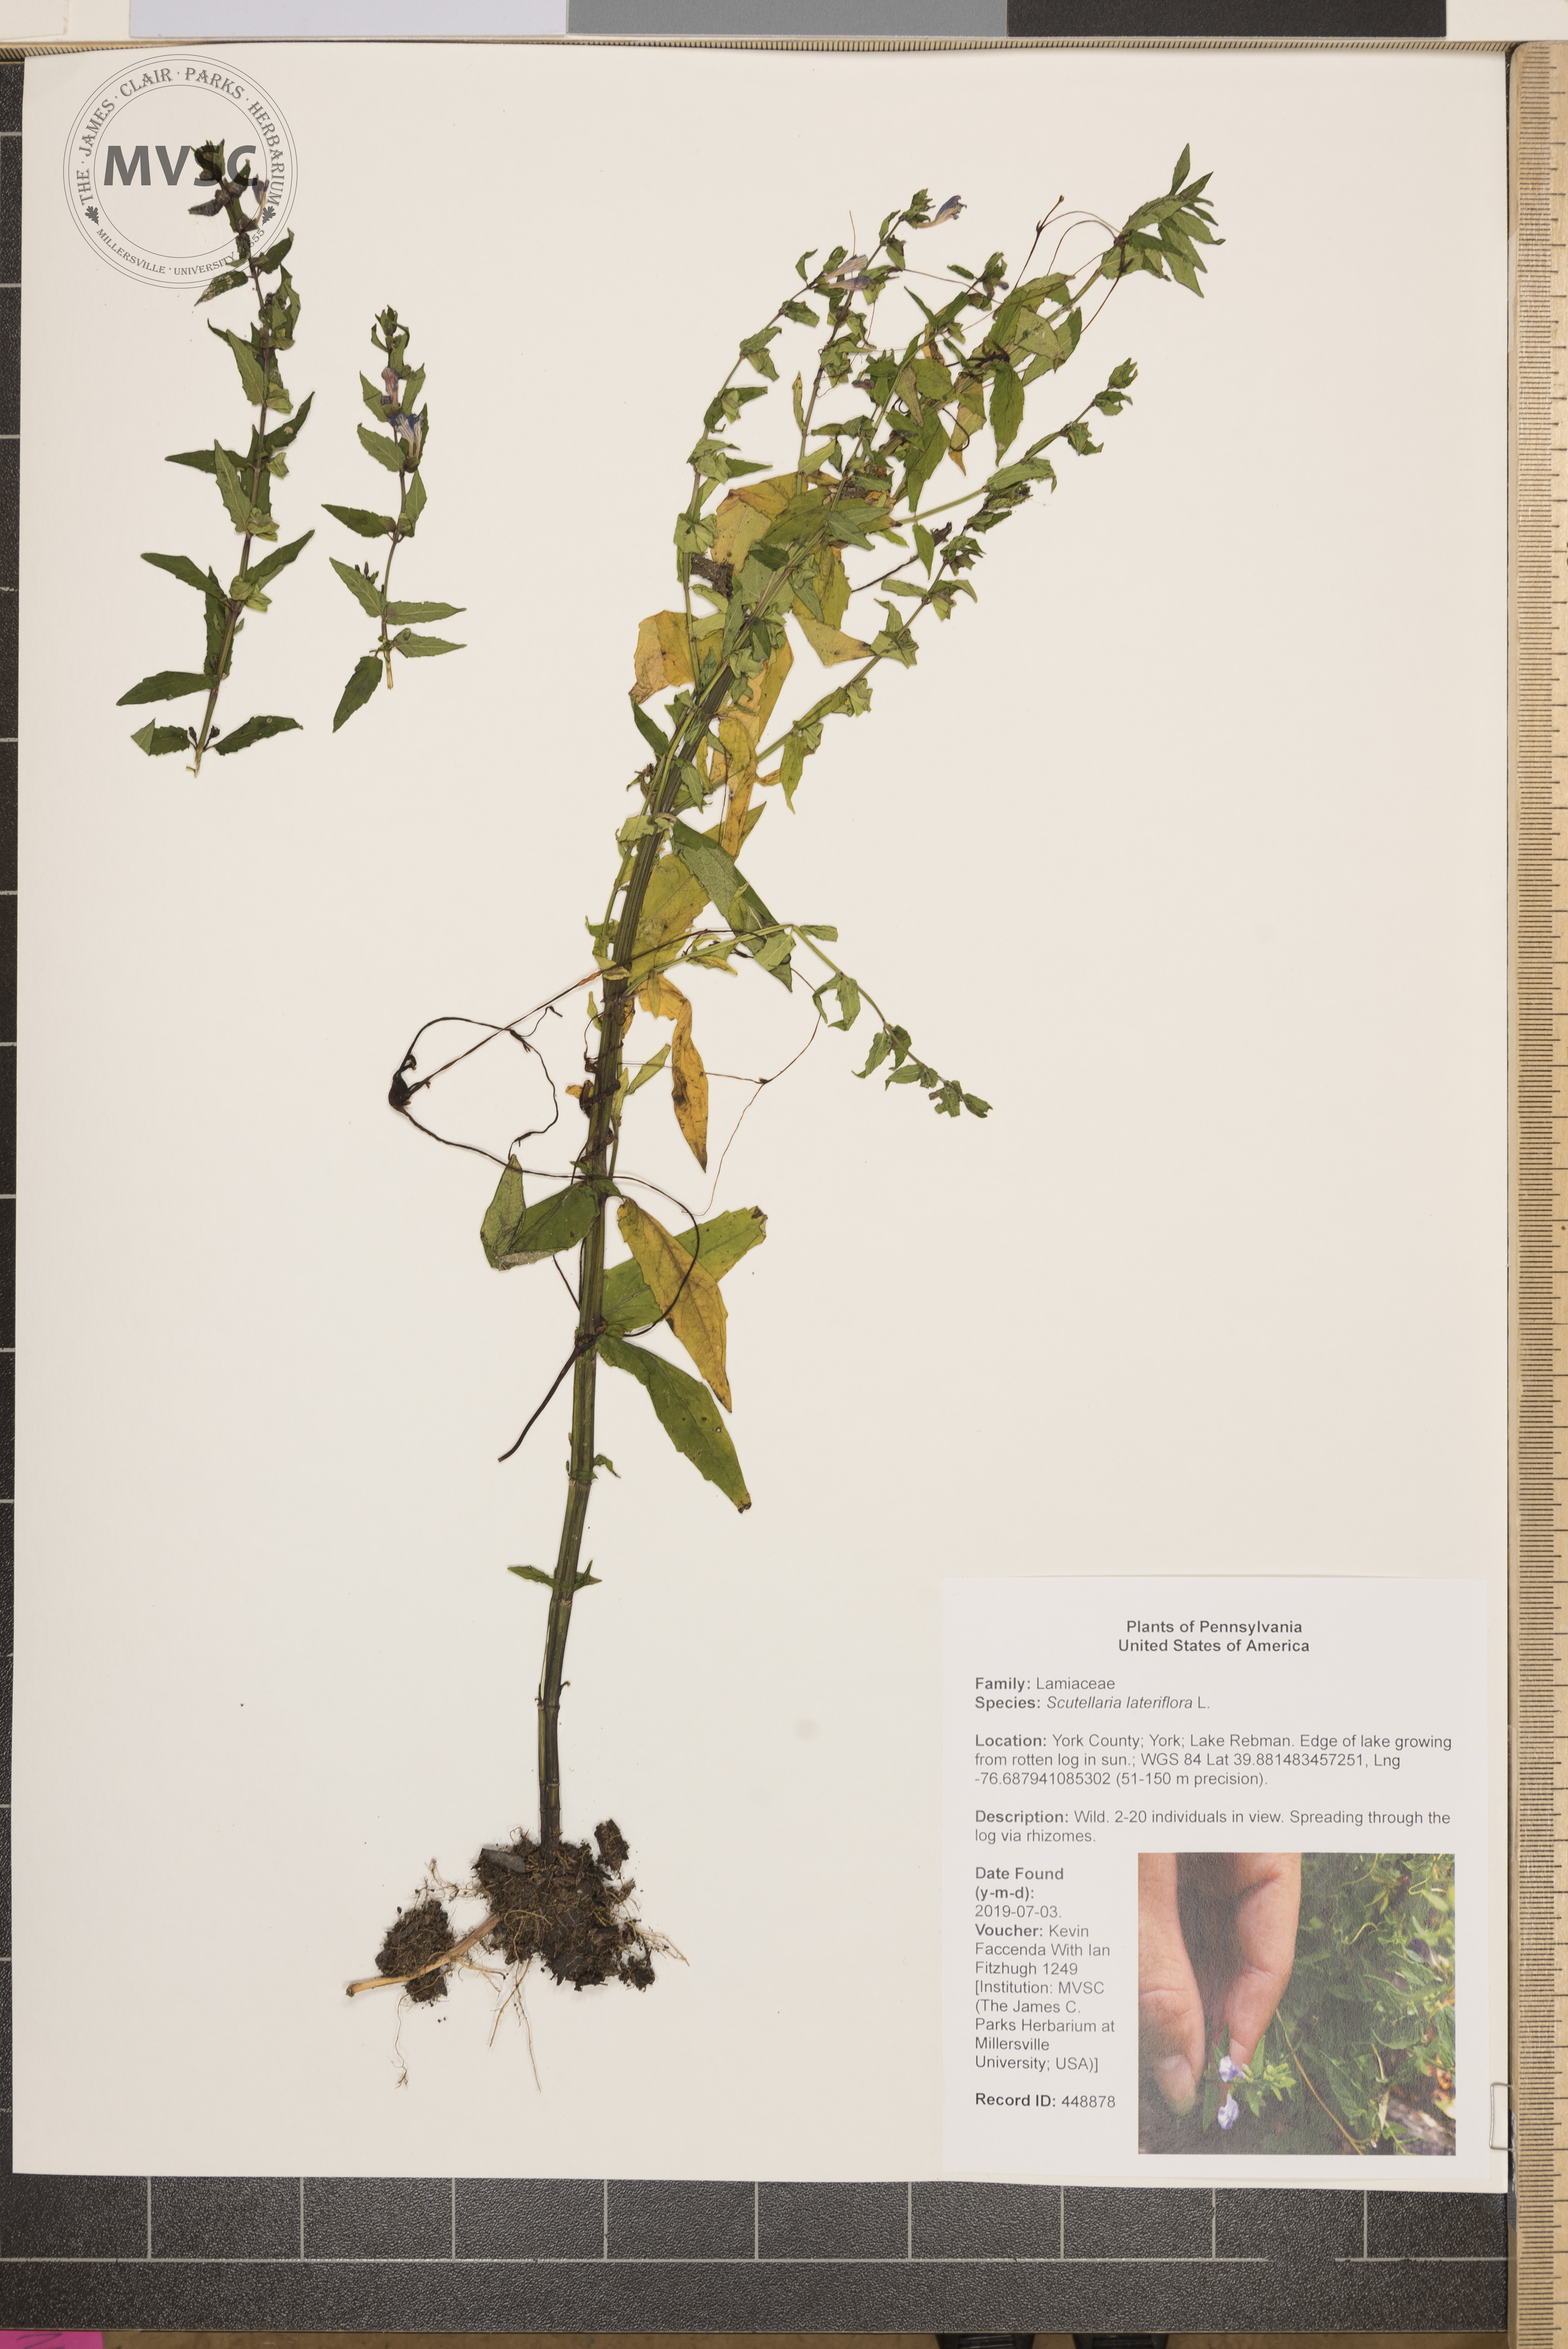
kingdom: Plantae
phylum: Tracheophyta
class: Magnoliopsida
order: Lamiales
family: Lamiaceae
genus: Scutellaria
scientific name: Scutellaria lateriflora
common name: Blue skullcap
